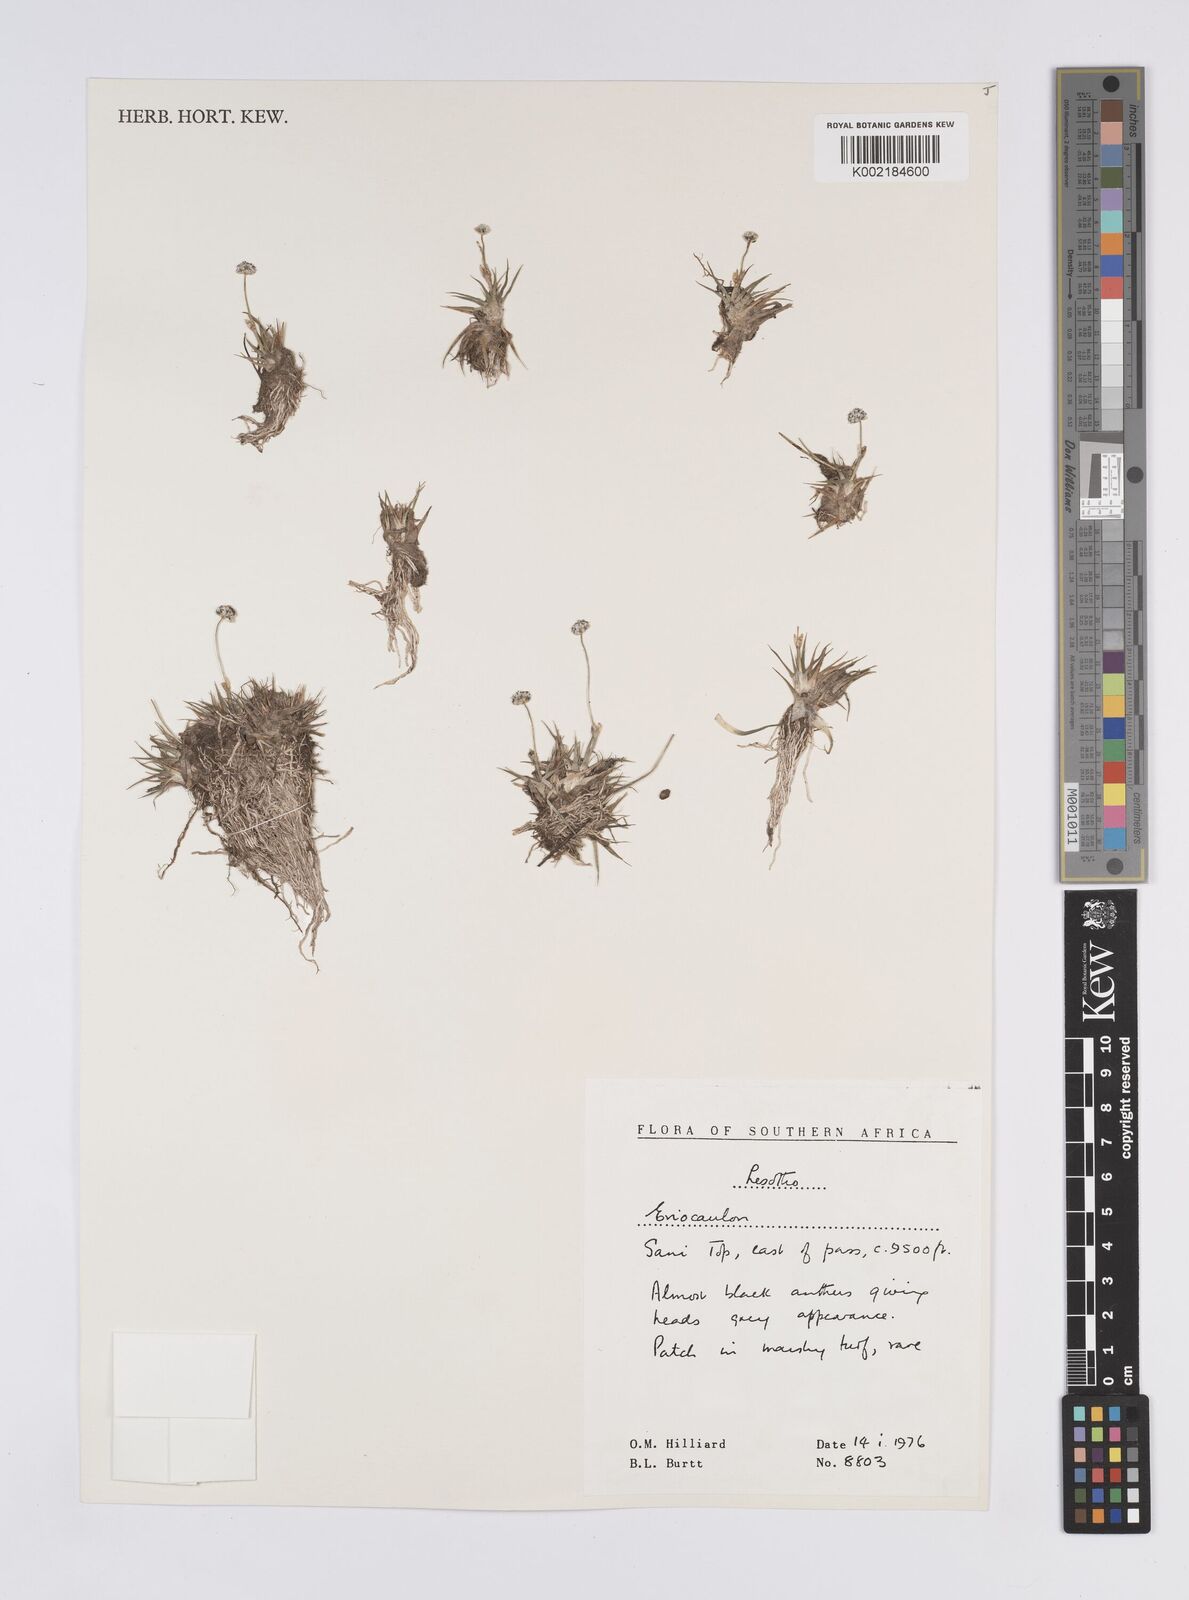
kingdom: Plantae
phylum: Tracheophyta
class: Liliopsida
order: Poales
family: Eriocaulaceae
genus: Eriocaulon
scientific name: Eriocaulon
